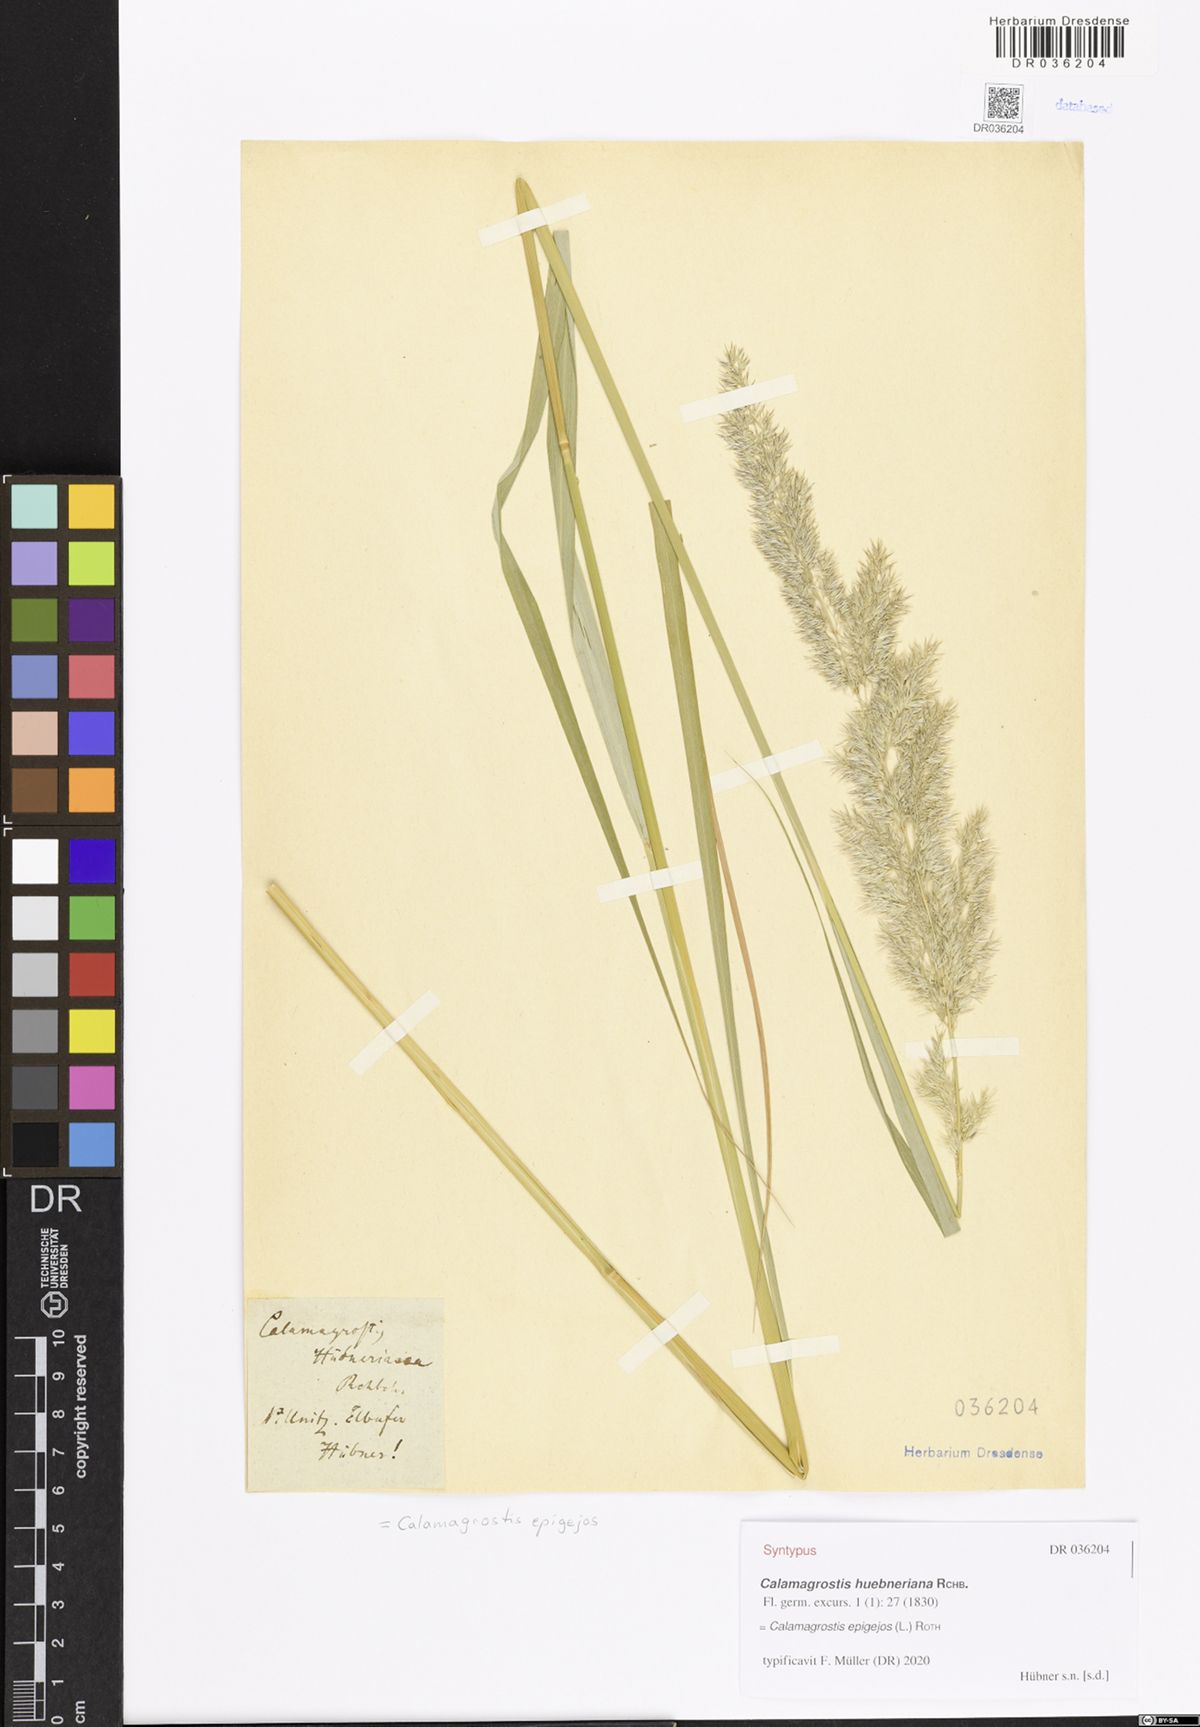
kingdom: Plantae
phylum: Tracheophyta
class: Liliopsida
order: Poales
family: Poaceae
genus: Calamagrostis
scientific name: Calamagrostis epigejos
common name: Wood small-reed
